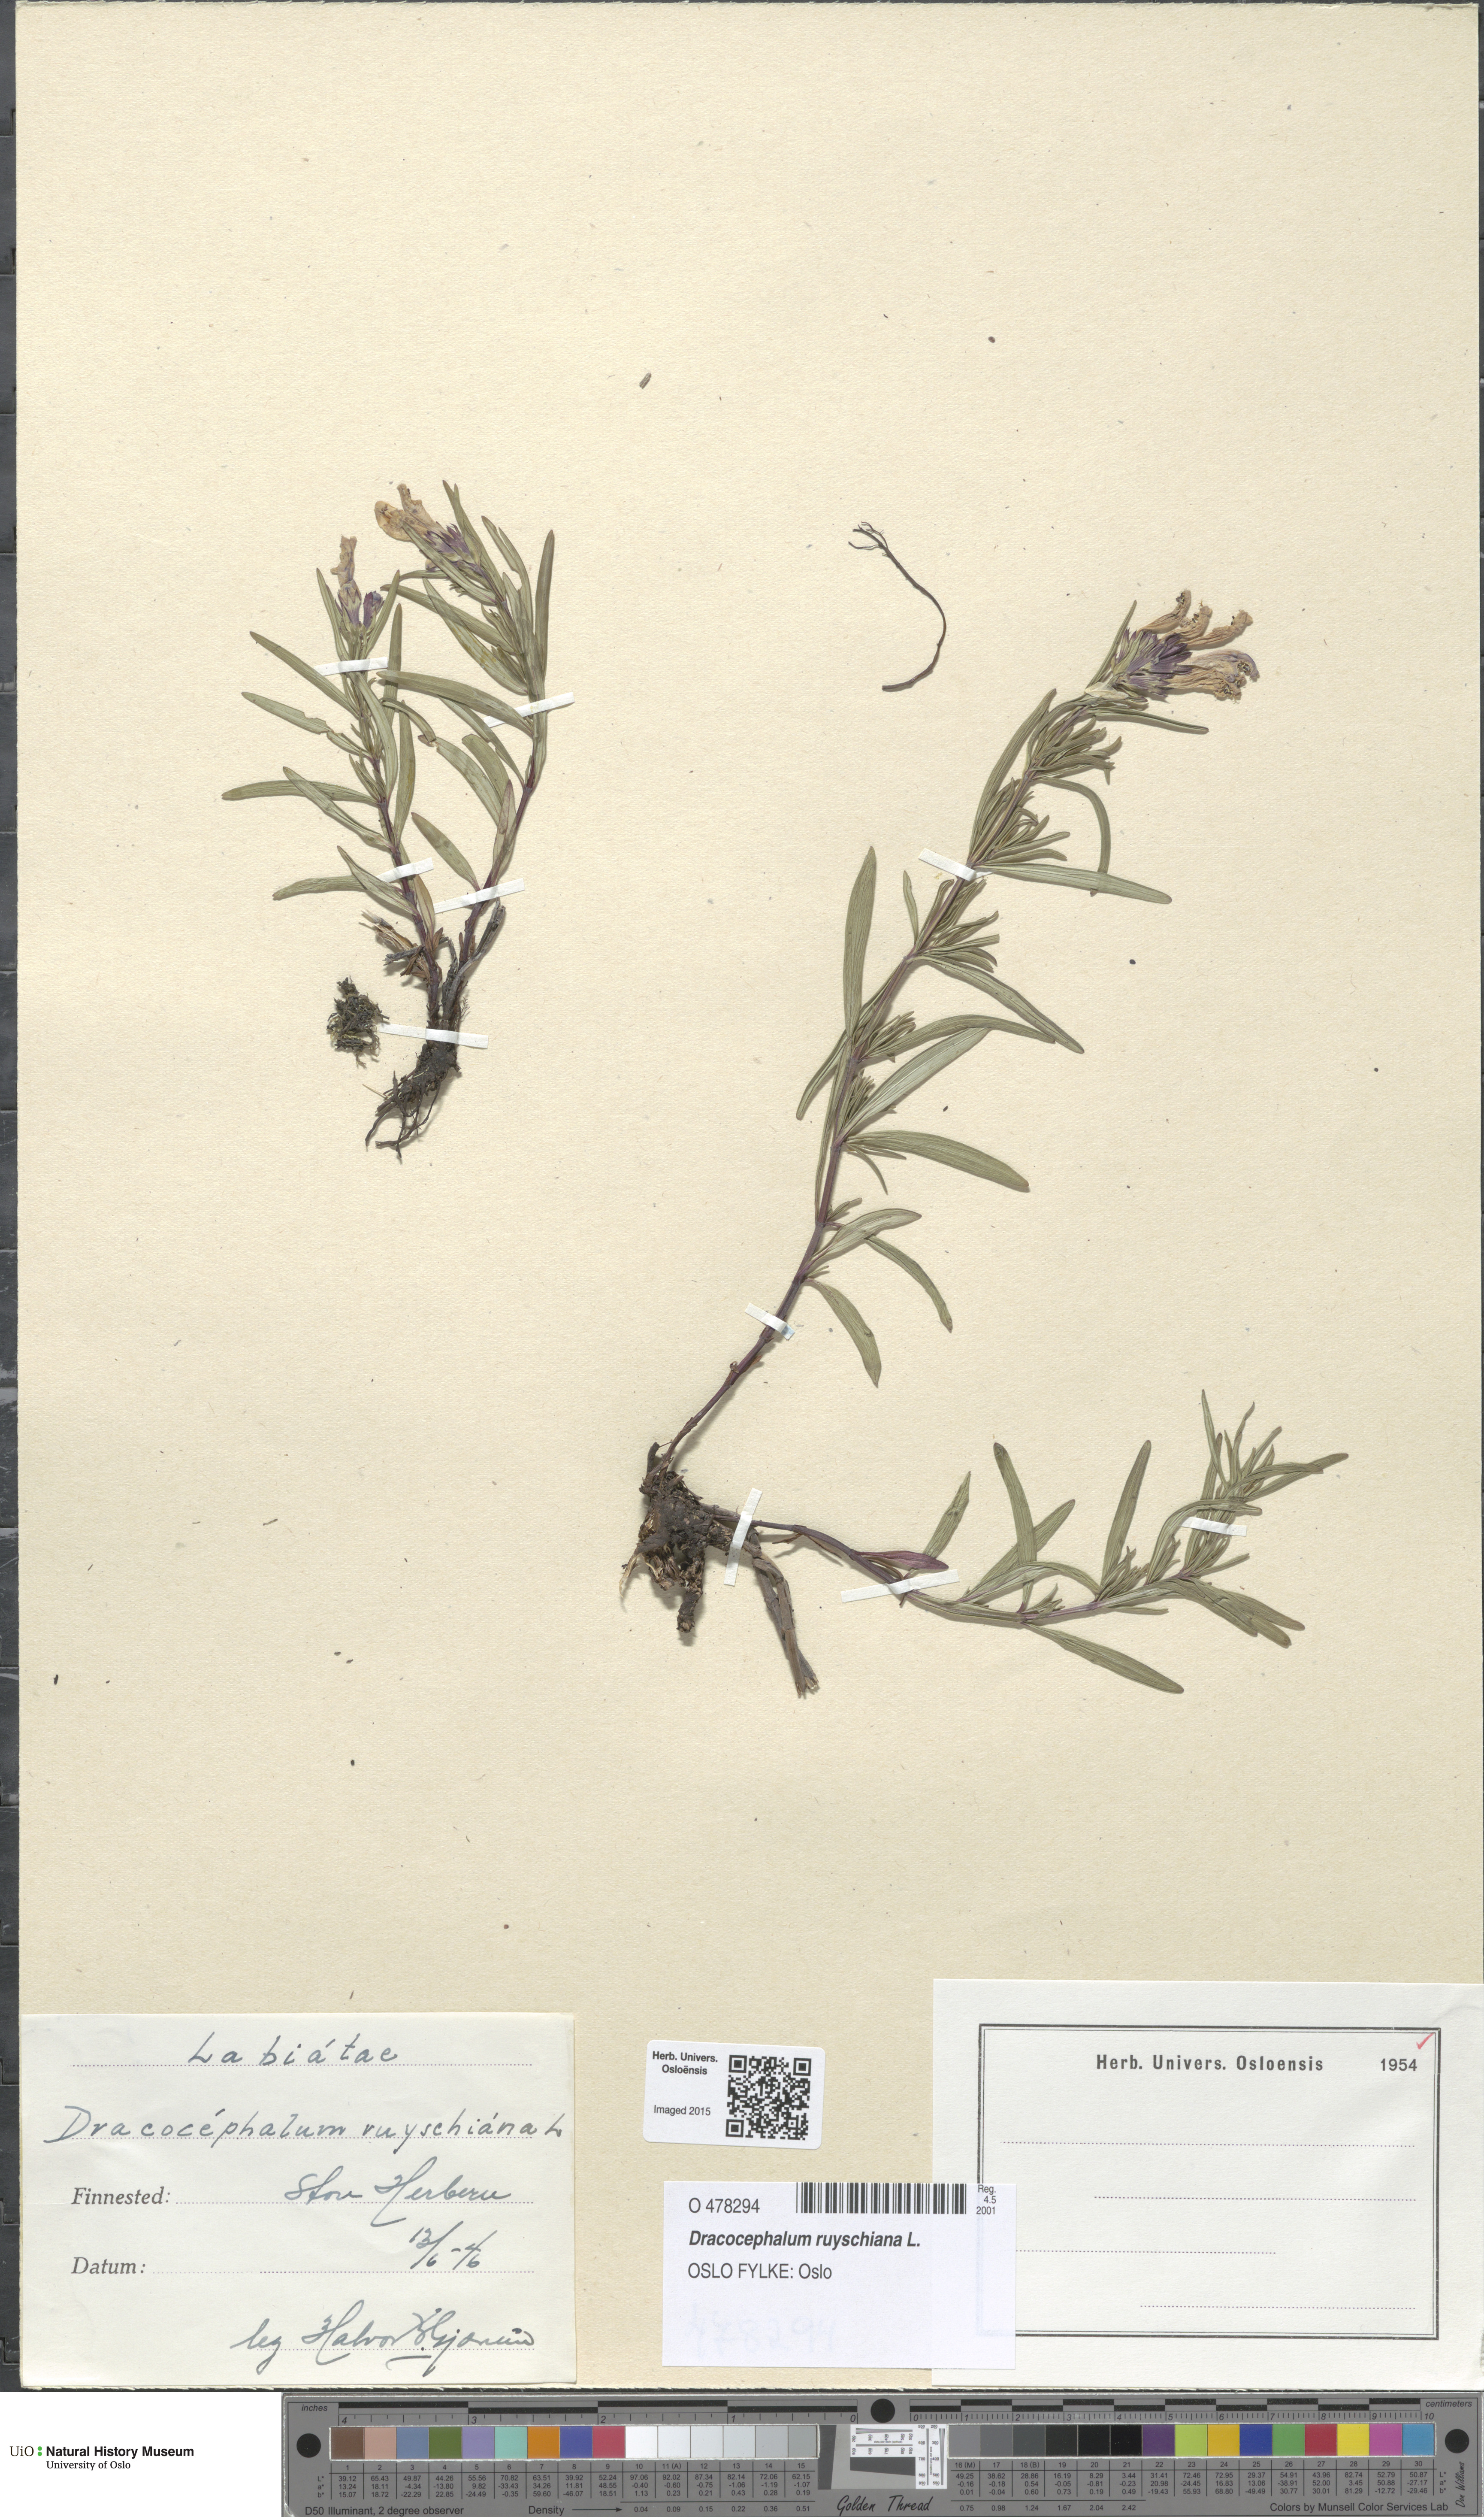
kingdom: Plantae
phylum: Tracheophyta
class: Magnoliopsida
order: Lamiales
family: Lamiaceae
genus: Dracocephalum
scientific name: Dracocephalum ruyschiana
